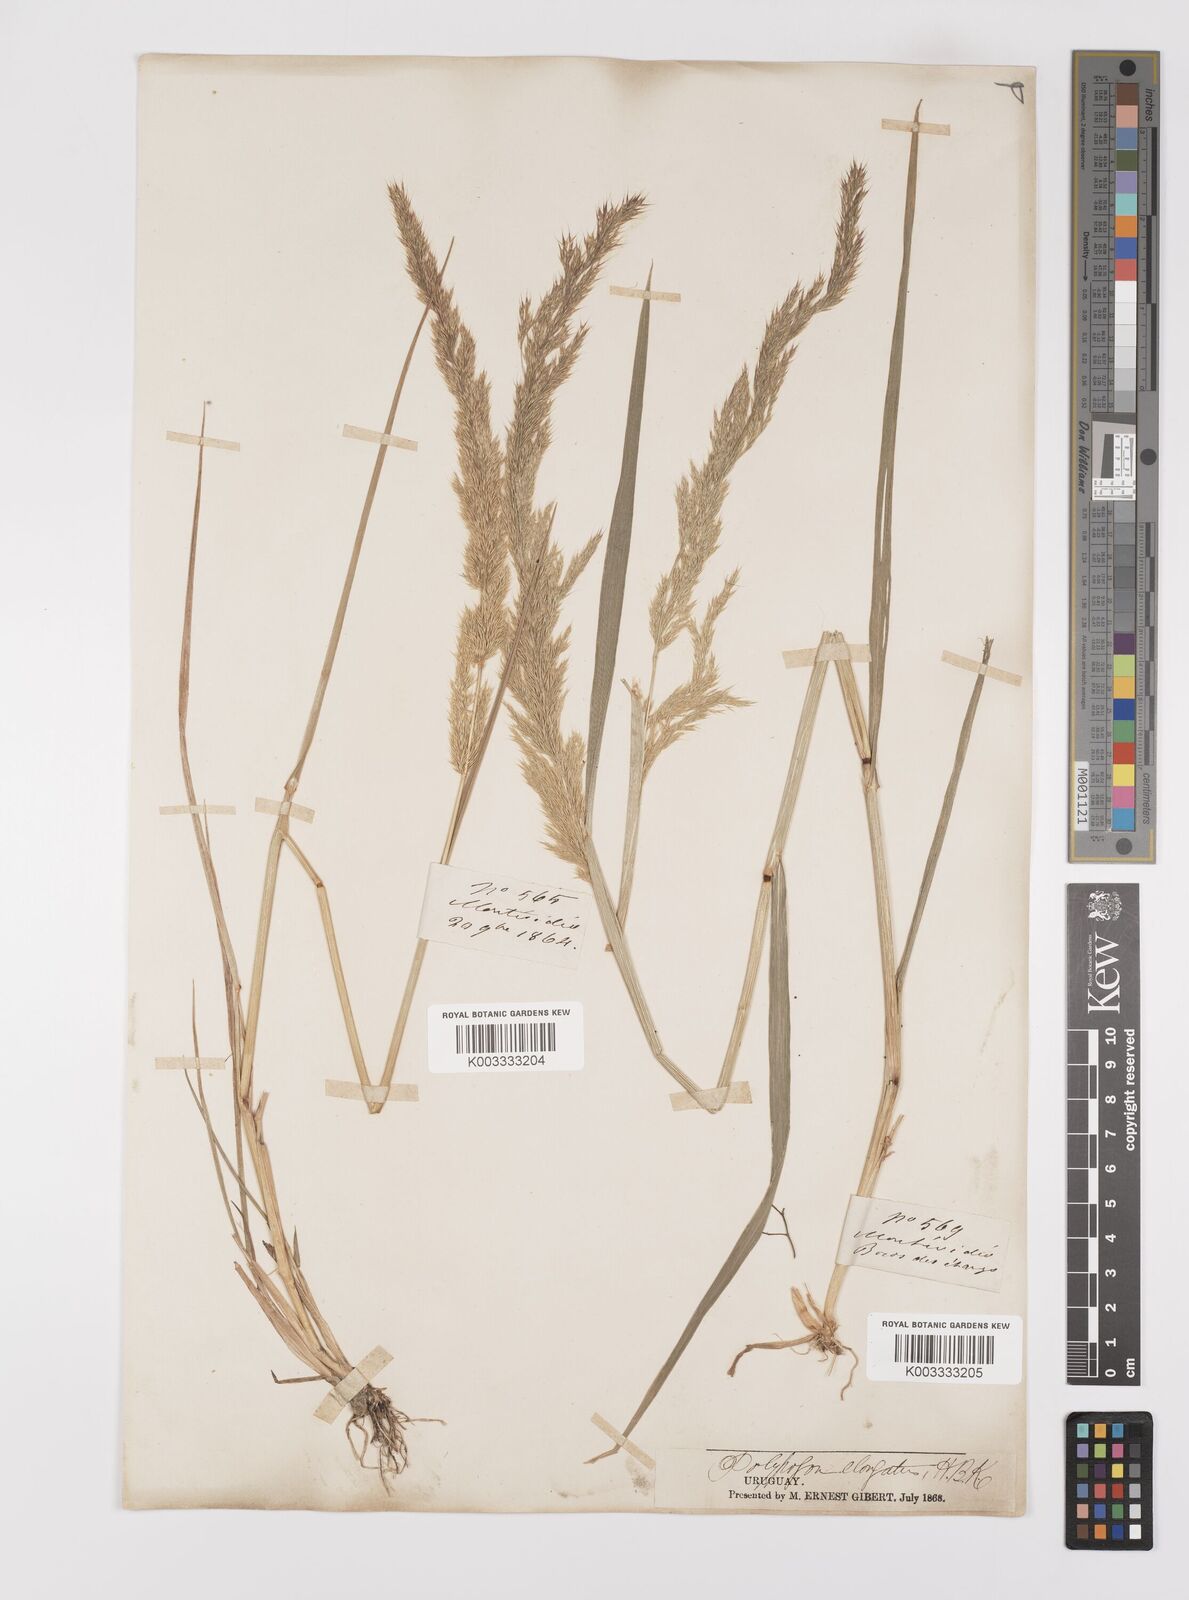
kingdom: Plantae
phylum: Tracheophyta
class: Liliopsida
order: Poales
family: Poaceae
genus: Polypogon
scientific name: Polypogon elongatus
